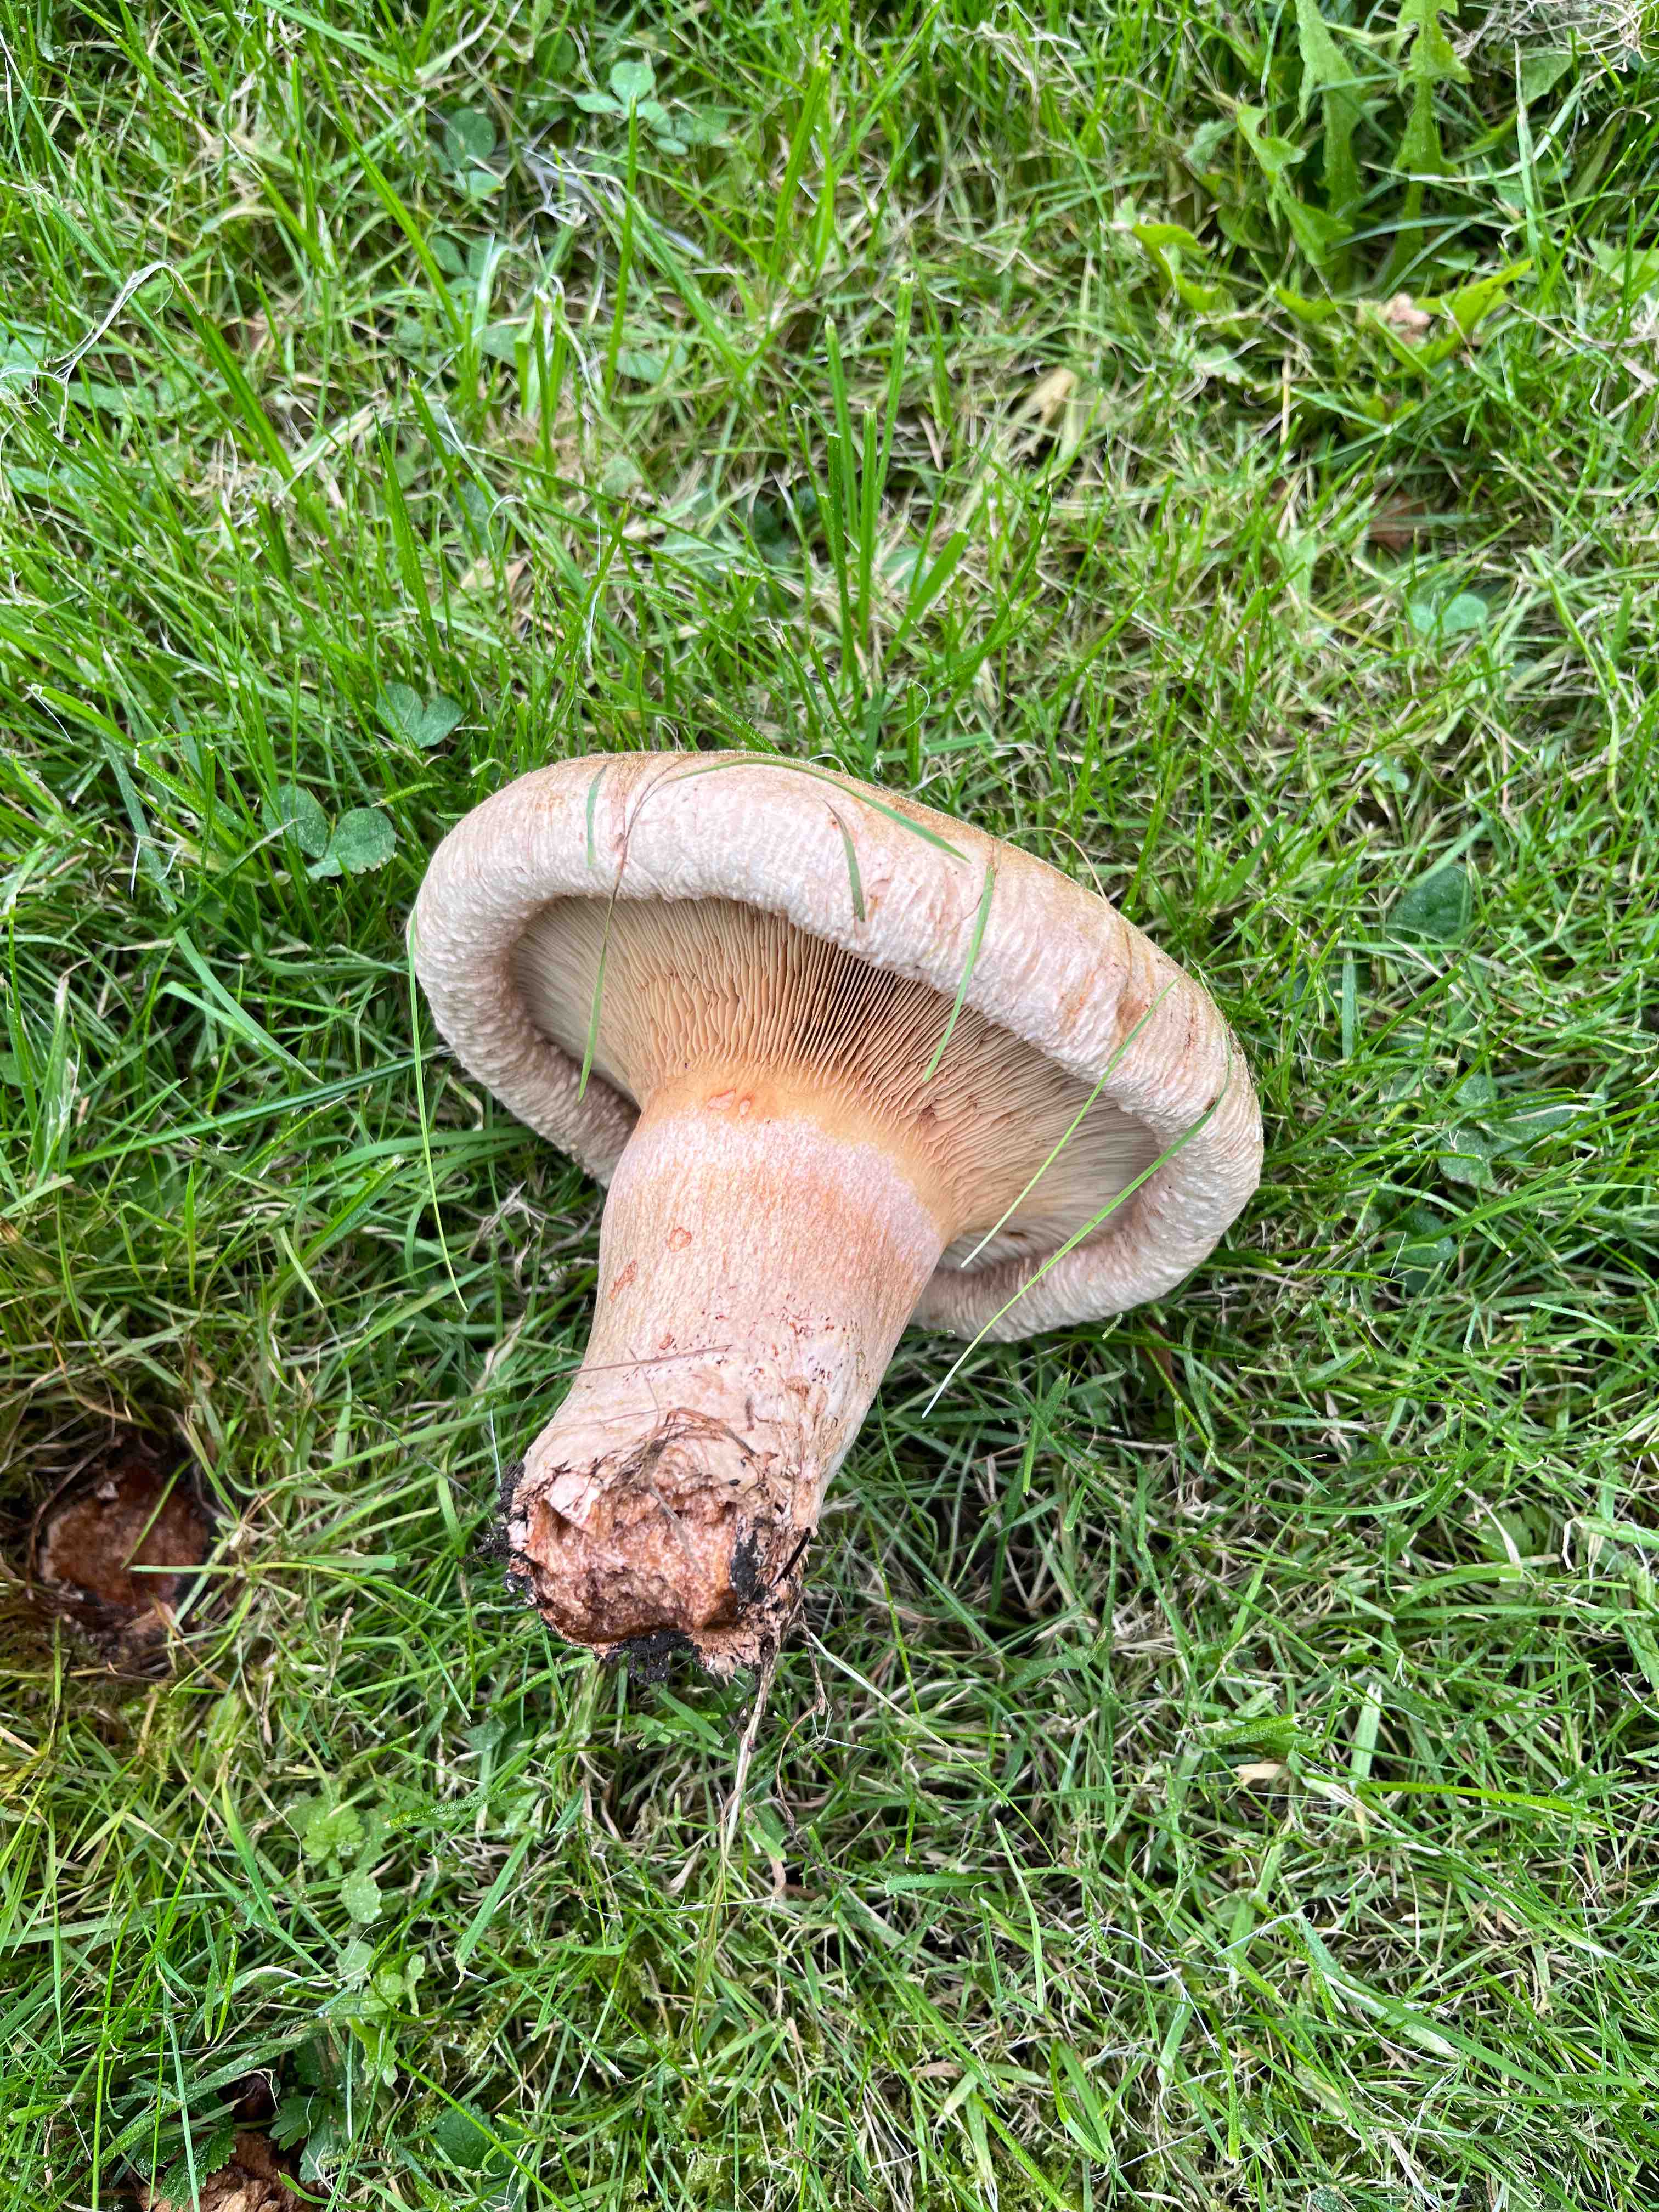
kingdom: Fungi
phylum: Basidiomycota
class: Agaricomycetes
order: Boletales
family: Paxillaceae
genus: Paxillus
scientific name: Paxillus
